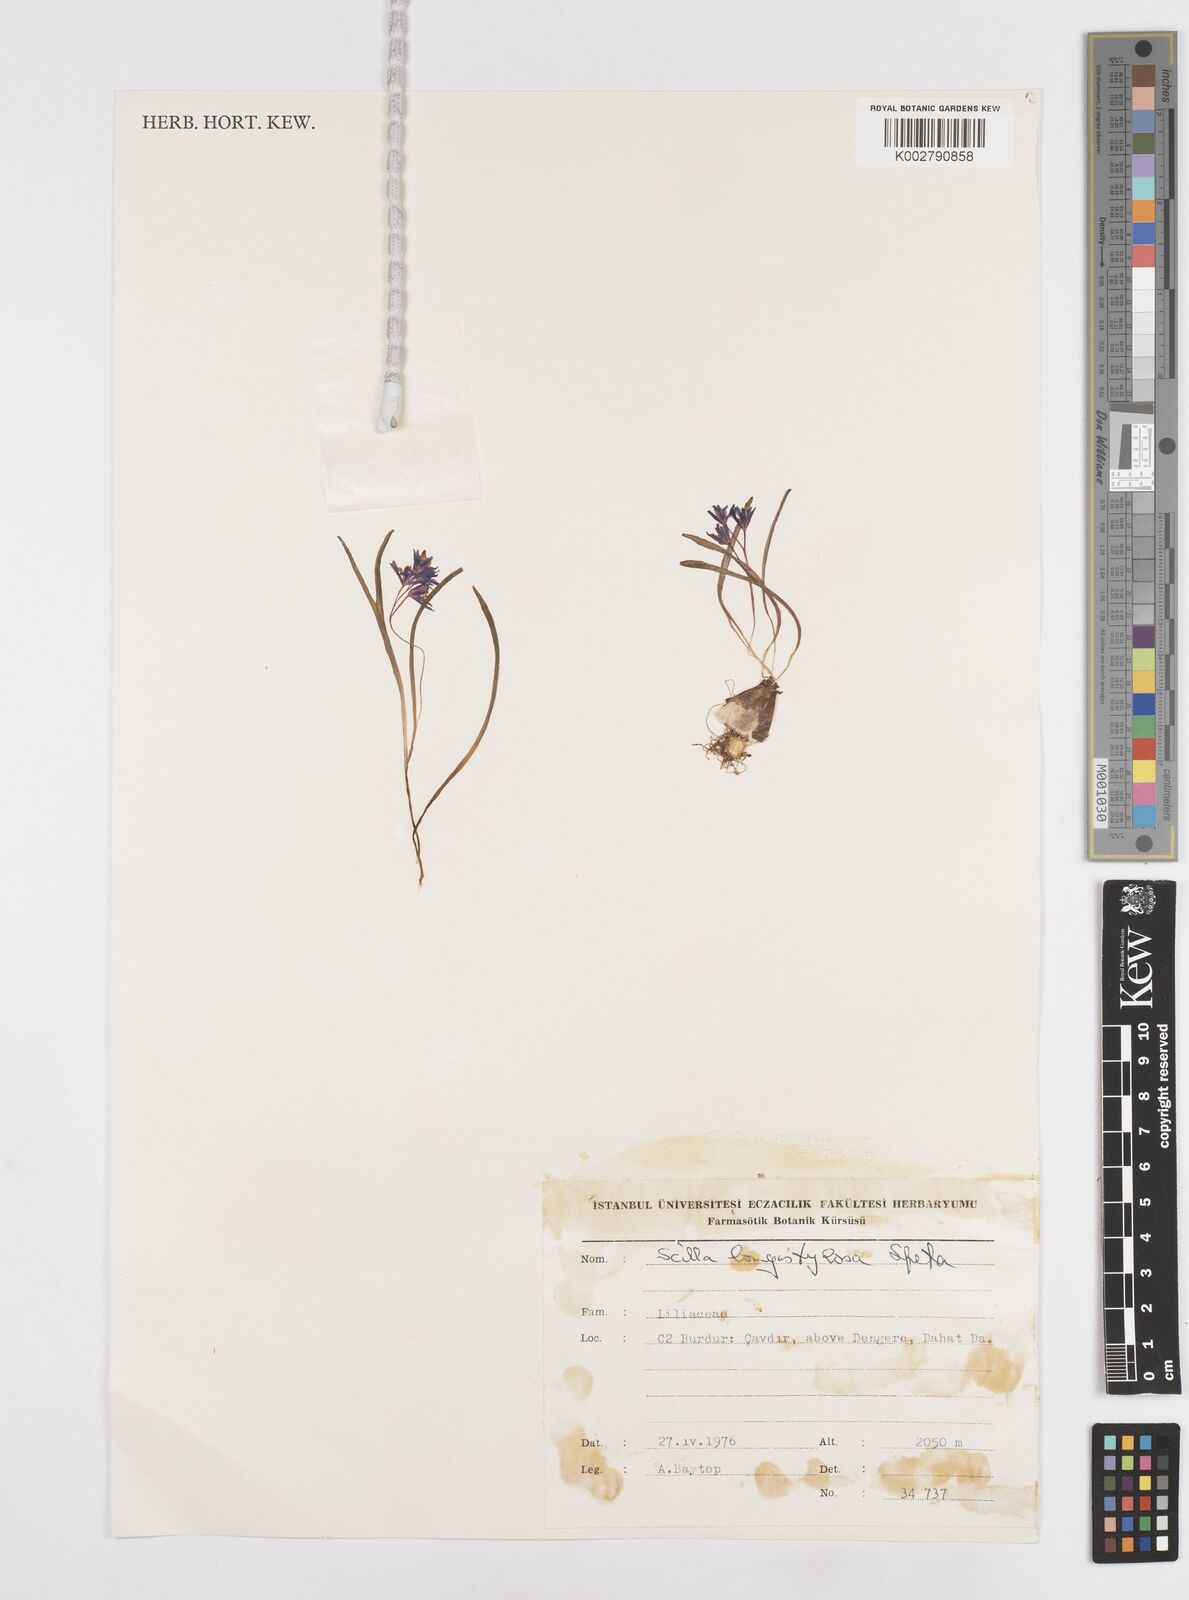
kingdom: Plantae
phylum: Tracheophyta
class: Liliopsida
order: Asparagales
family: Asparagaceae
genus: Scilla
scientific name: Scilla bifolia
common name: Alpine squill
